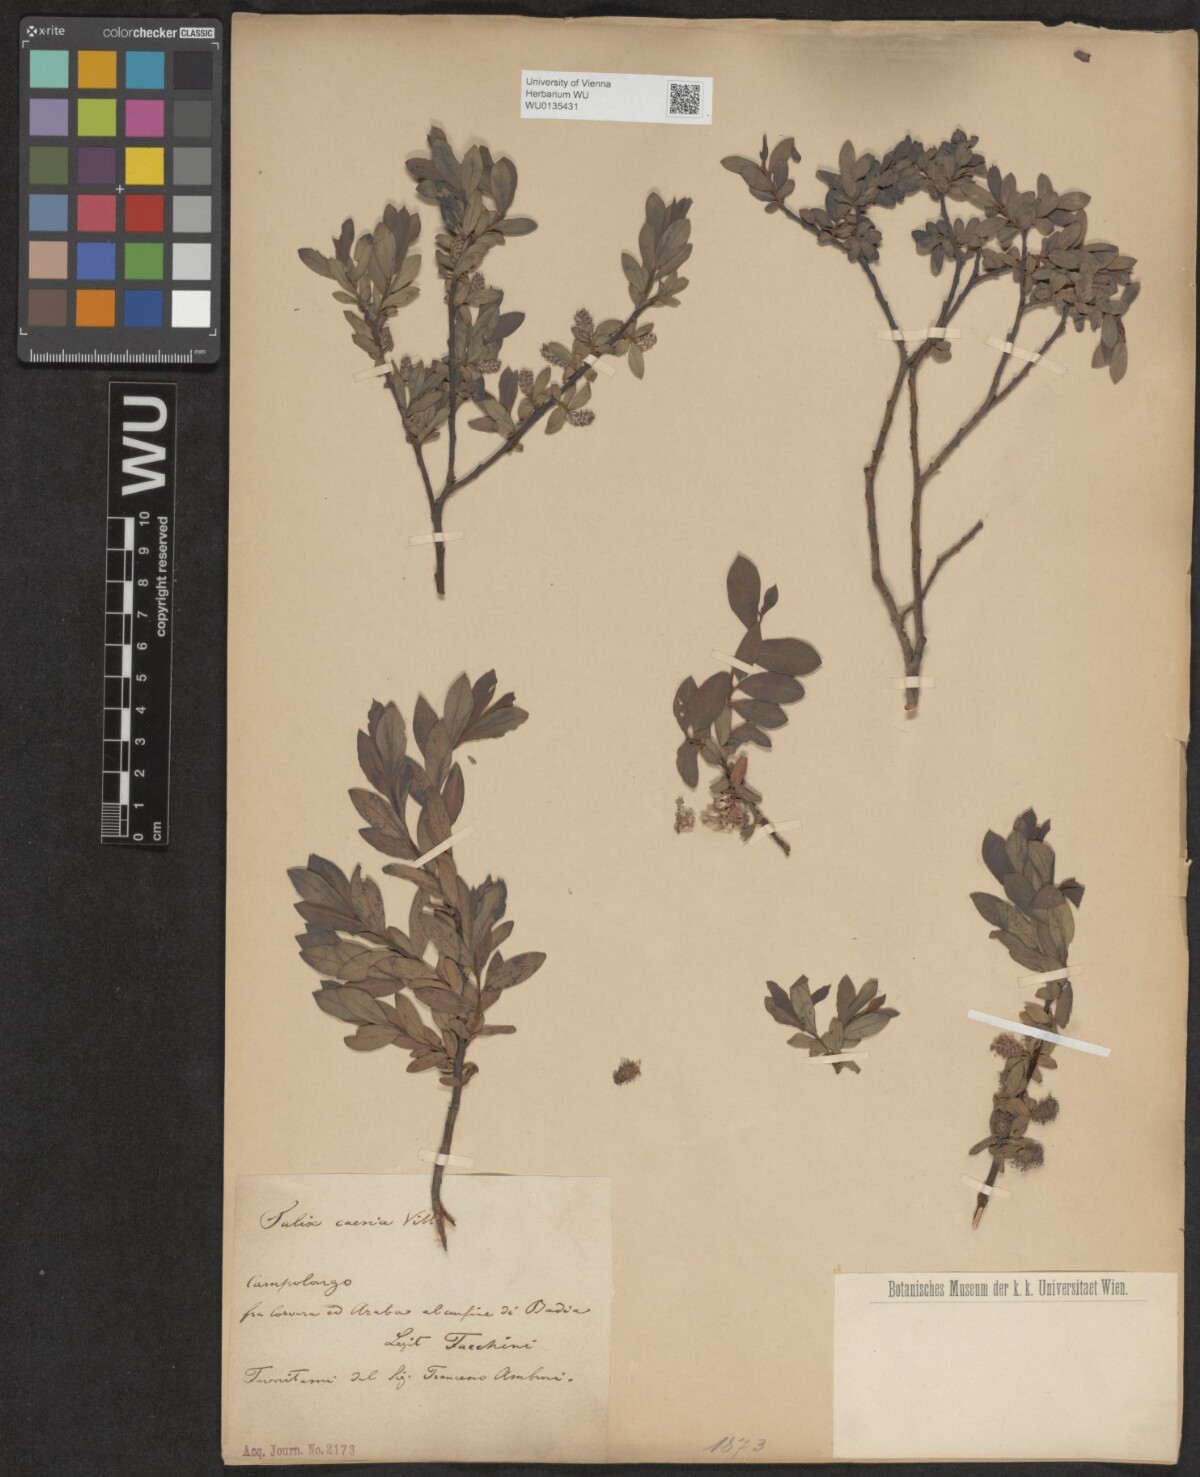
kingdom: Plantae
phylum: Tracheophyta
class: Magnoliopsida
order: Malpighiales
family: Salicaceae
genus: Salix
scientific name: Salix caesia
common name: Blue willow
